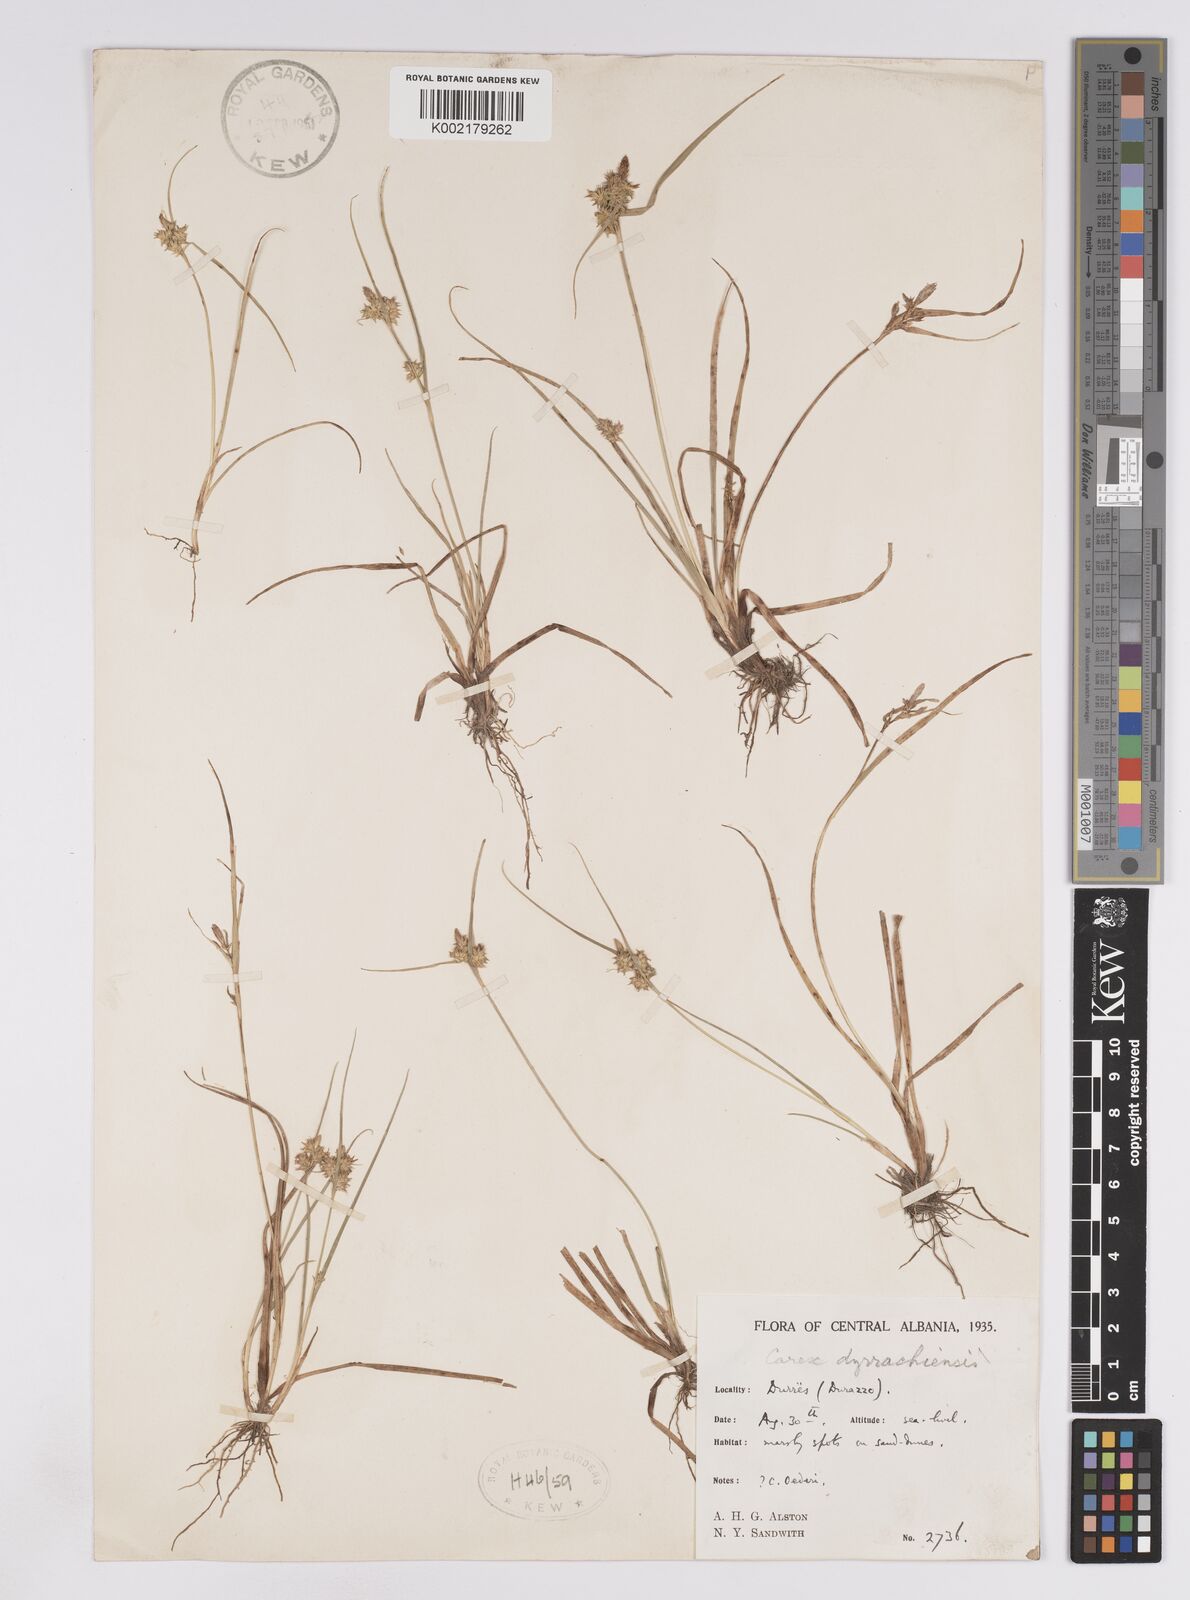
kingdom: Plantae
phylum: Tracheophyta
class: Liliopsida
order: Poales
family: Cyperaceae
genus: Carex
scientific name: Carex oederi
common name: Common & small-fruited yellow-sedge
